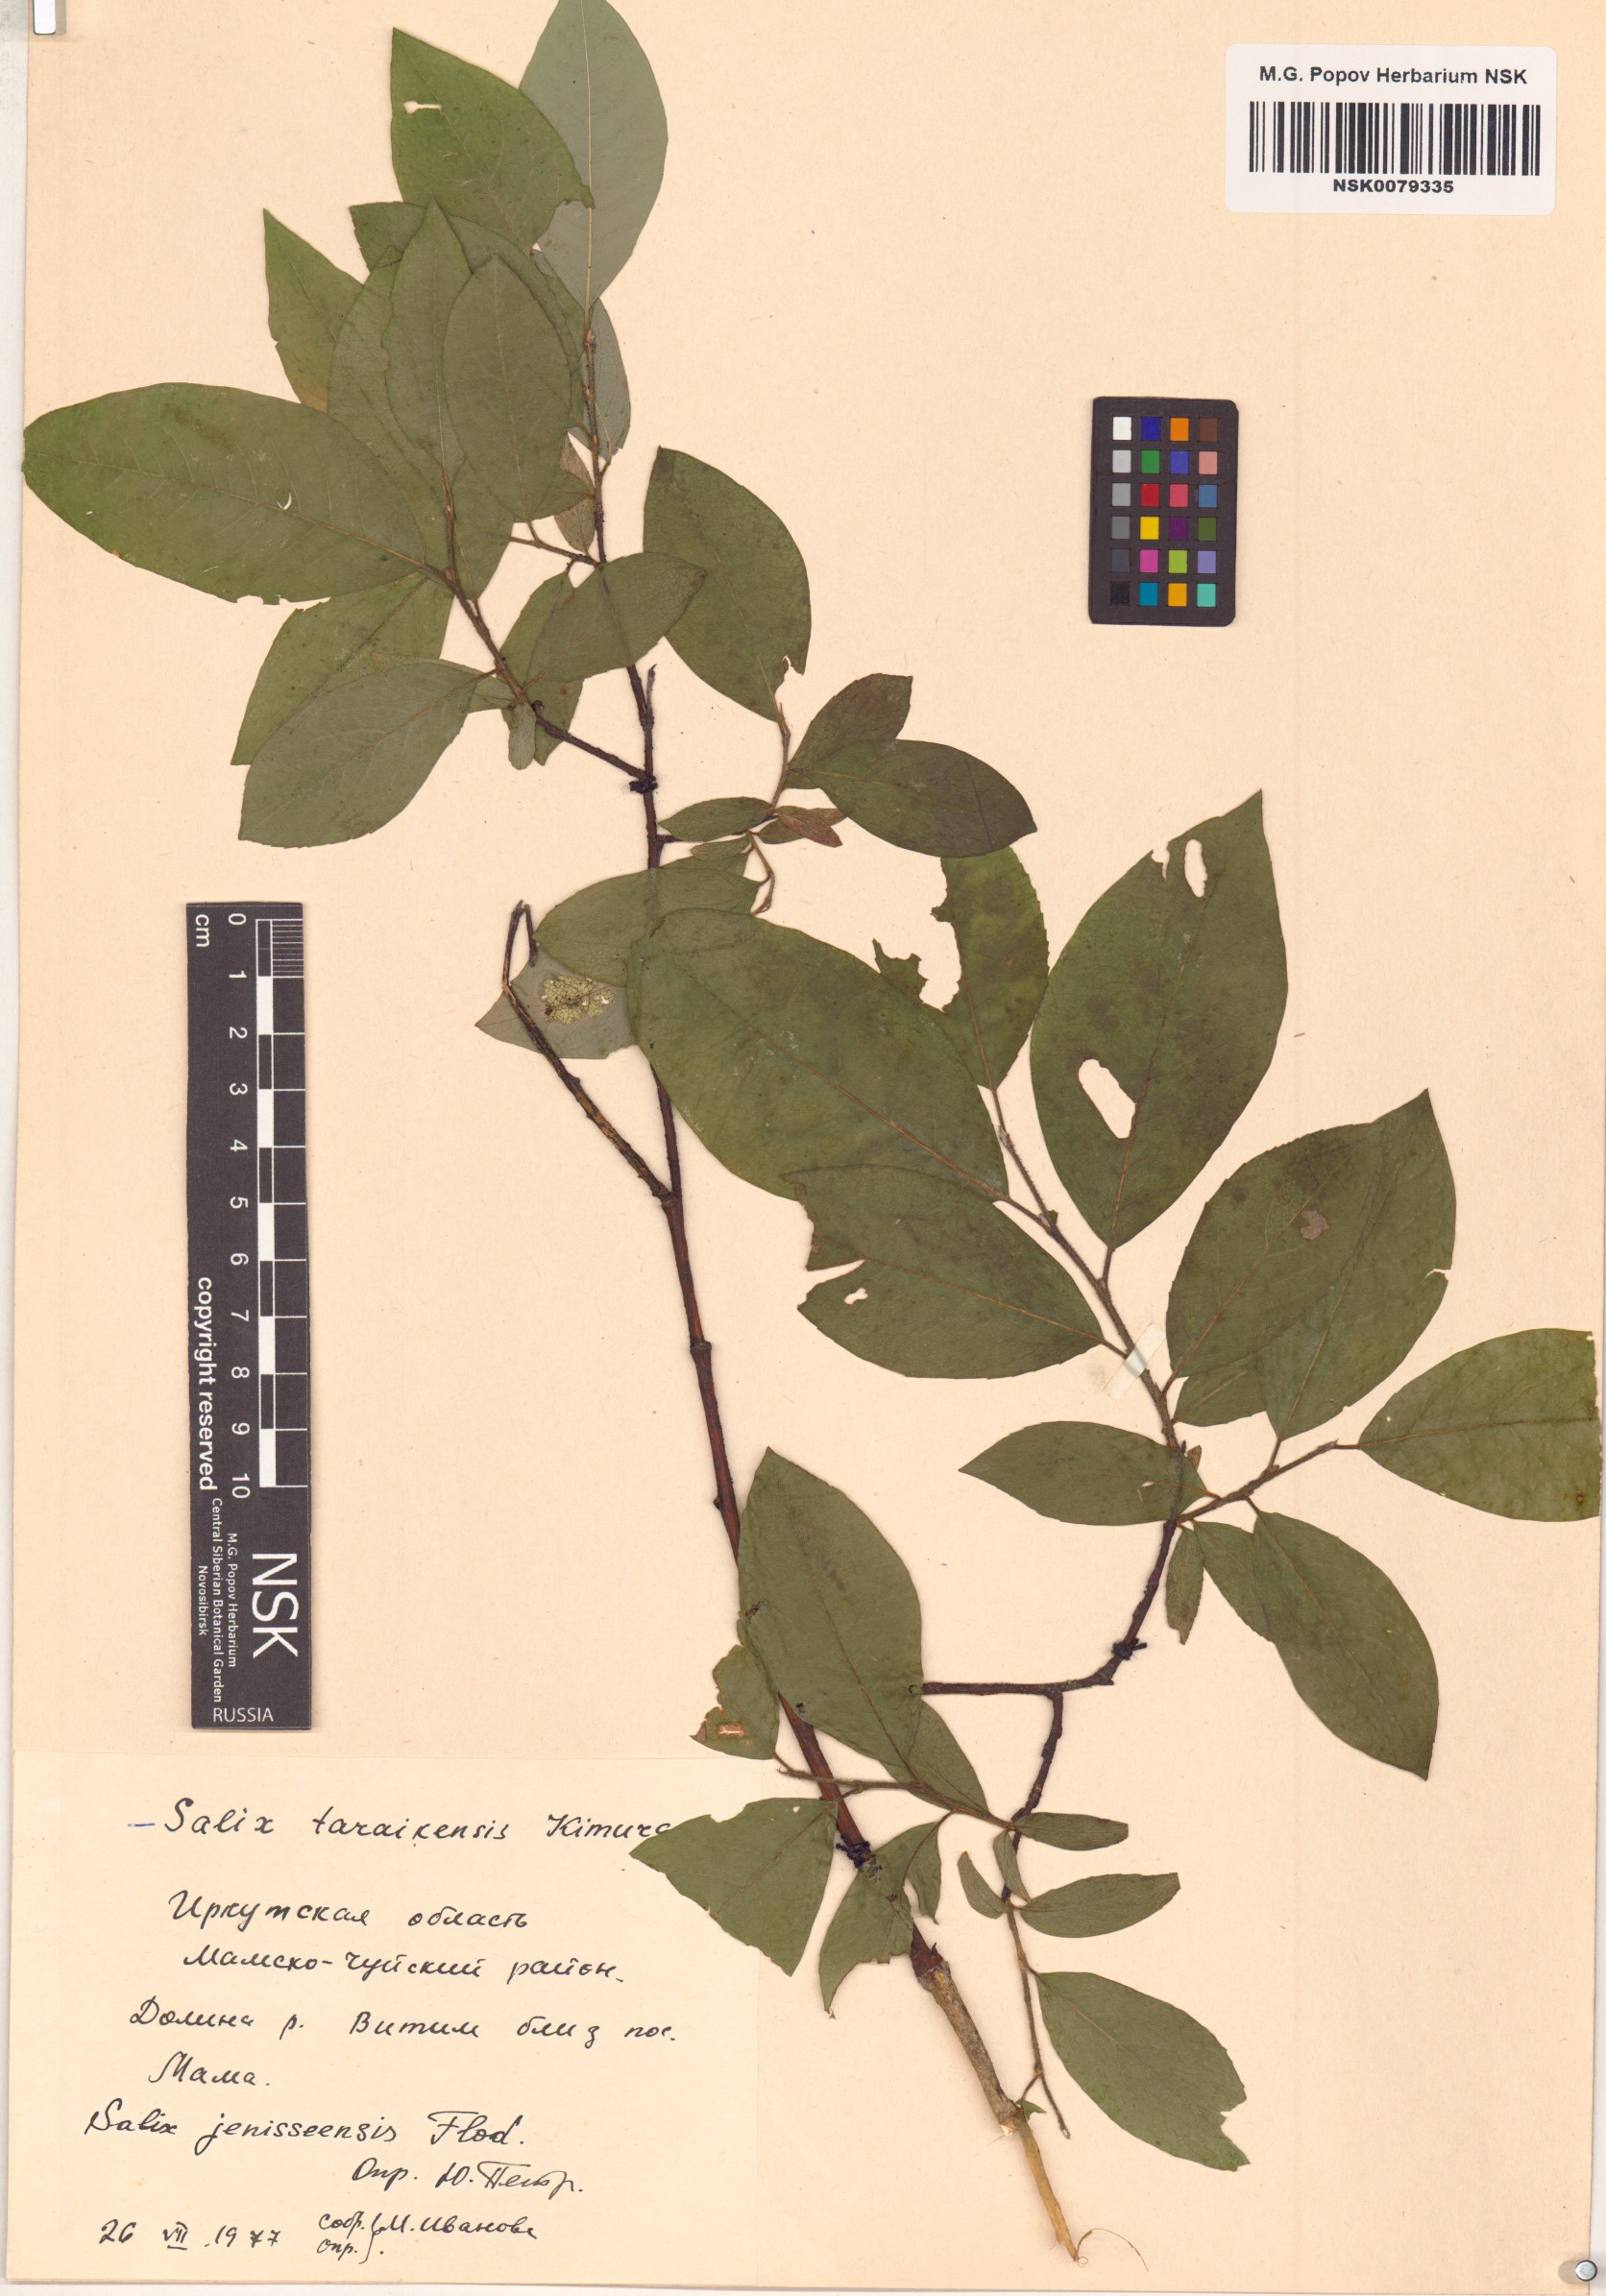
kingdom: Plantae
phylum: Tracheophyta
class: Magnoliopsida
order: Malpighiales
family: Salicaceae
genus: Salix
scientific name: Salix jenisseensis
